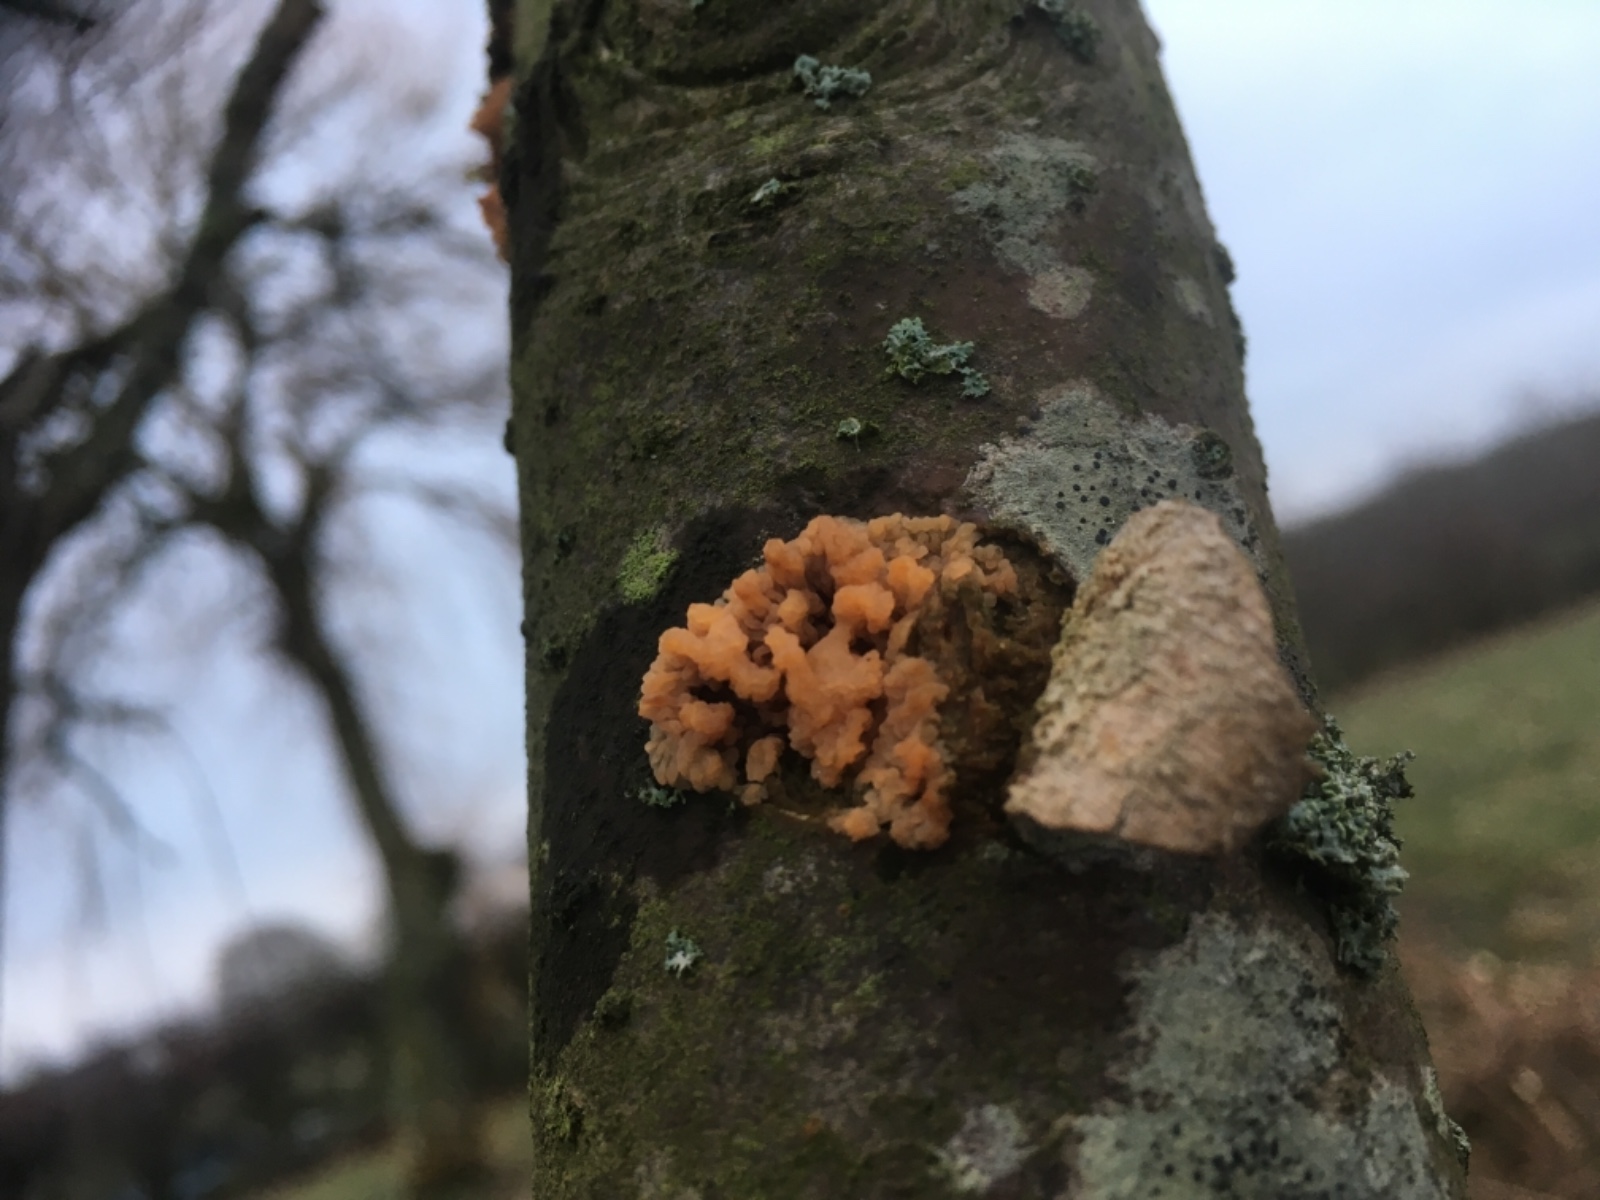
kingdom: Fungi
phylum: Basidiomycota
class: Agaricomycetes
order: Russulales
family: Peniophoraceae
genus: Peniophora
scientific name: Peniophora
